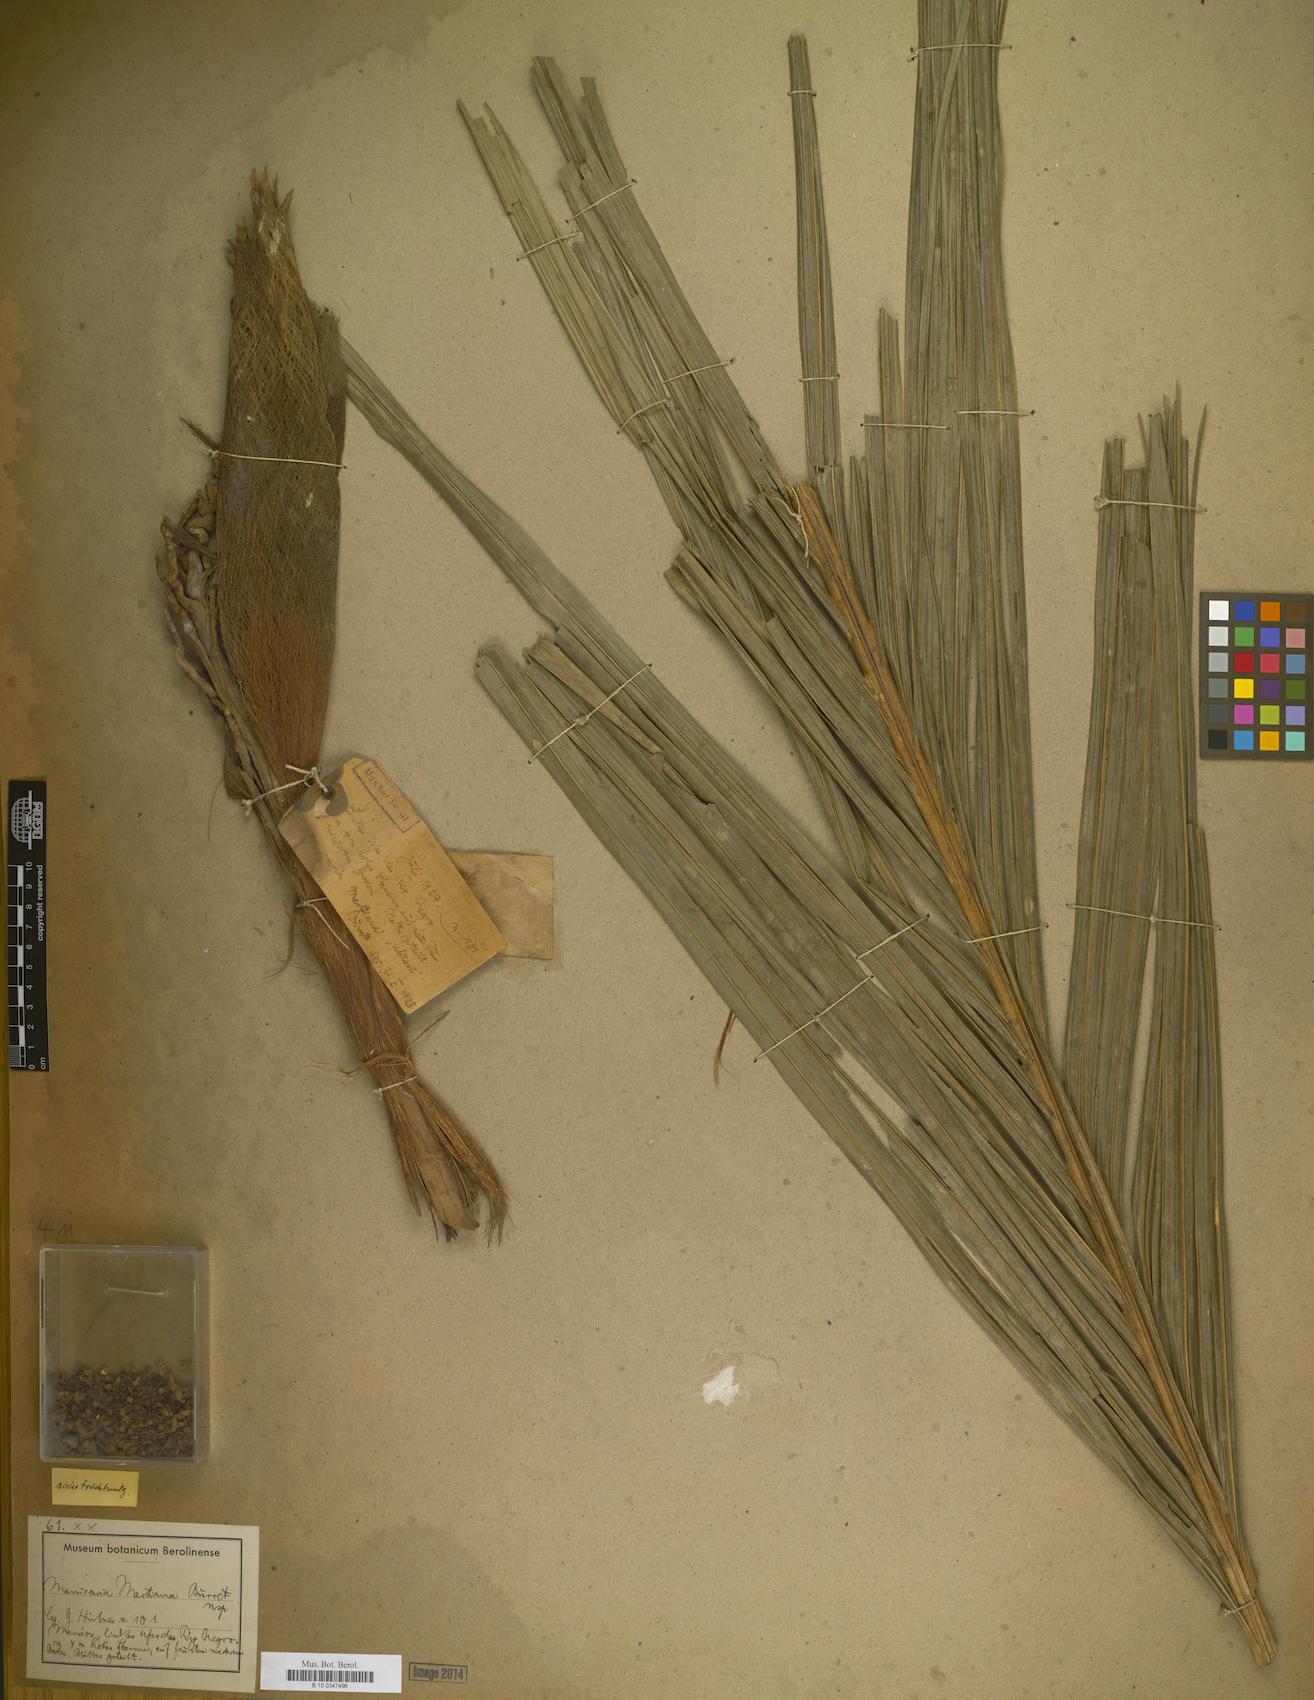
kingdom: Plantae
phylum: Tracheophyta
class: Liliopsida
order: Arecales
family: Arecaceae
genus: Manicaria
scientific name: Manicaria martiana
